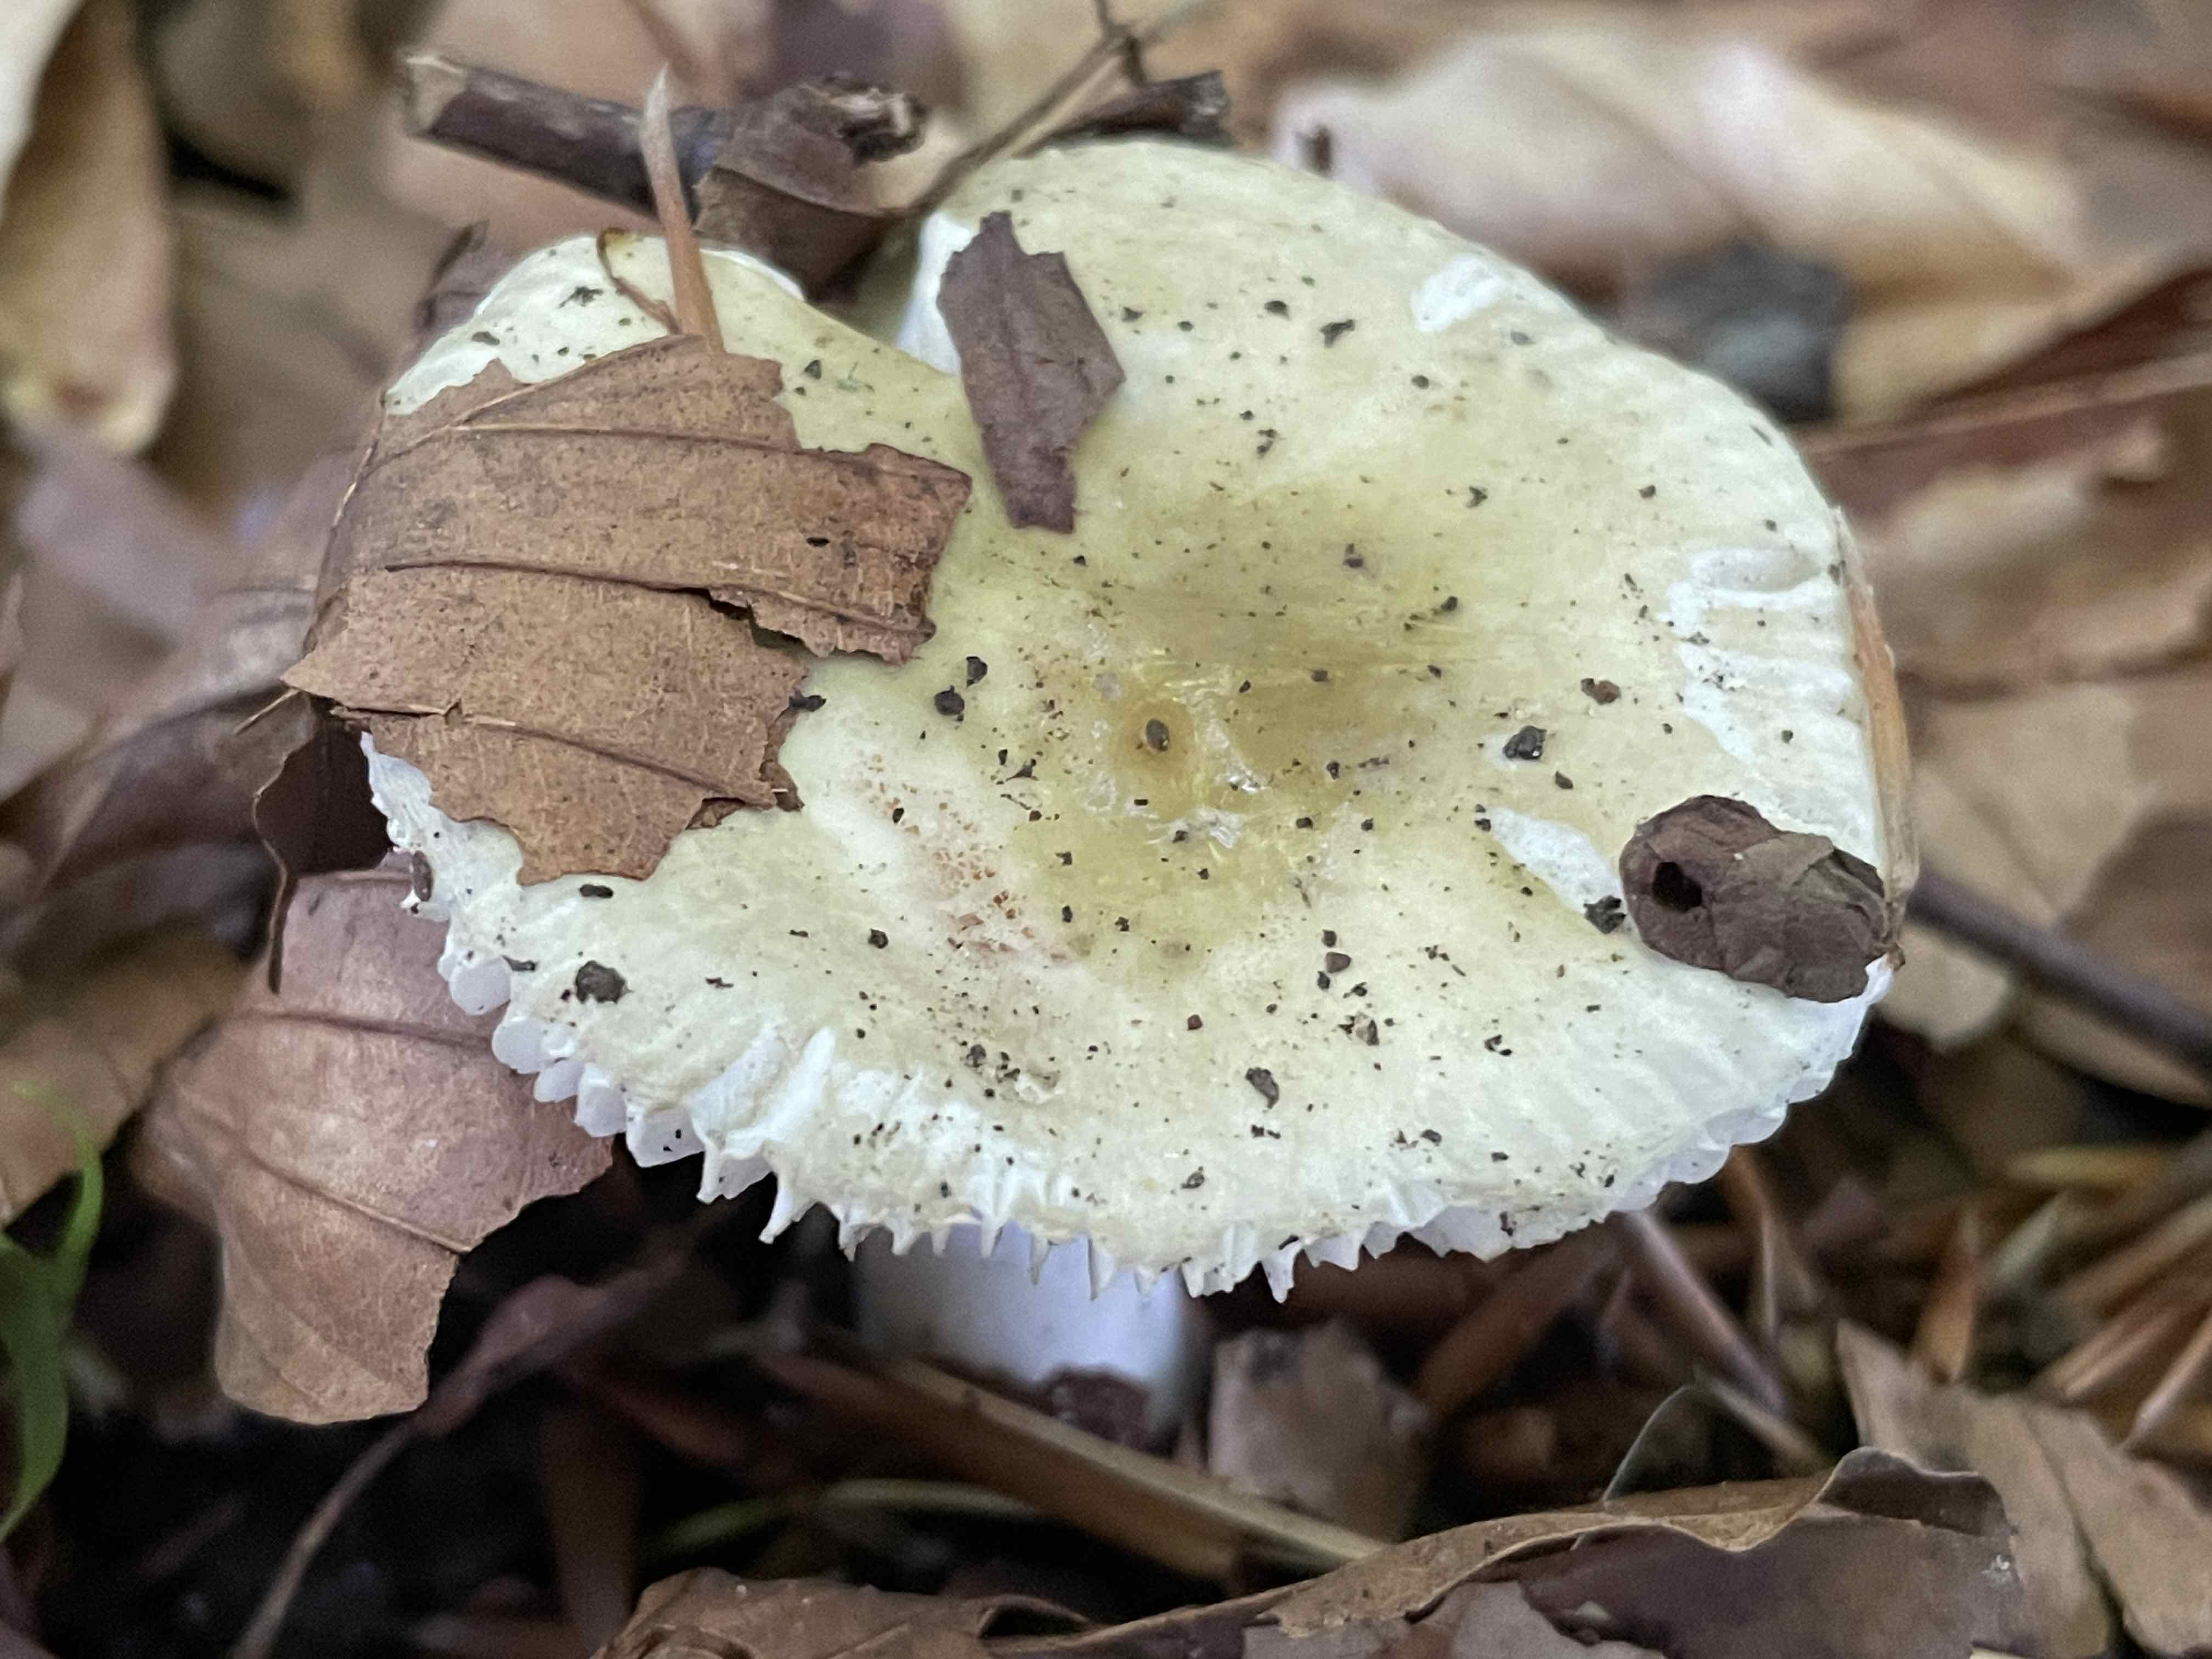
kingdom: Fungi
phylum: Basidiomycota
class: Agaricomycetes
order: Russulales
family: Russulaceae
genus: Russula
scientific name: Russula solaris
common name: sol-skørhat
